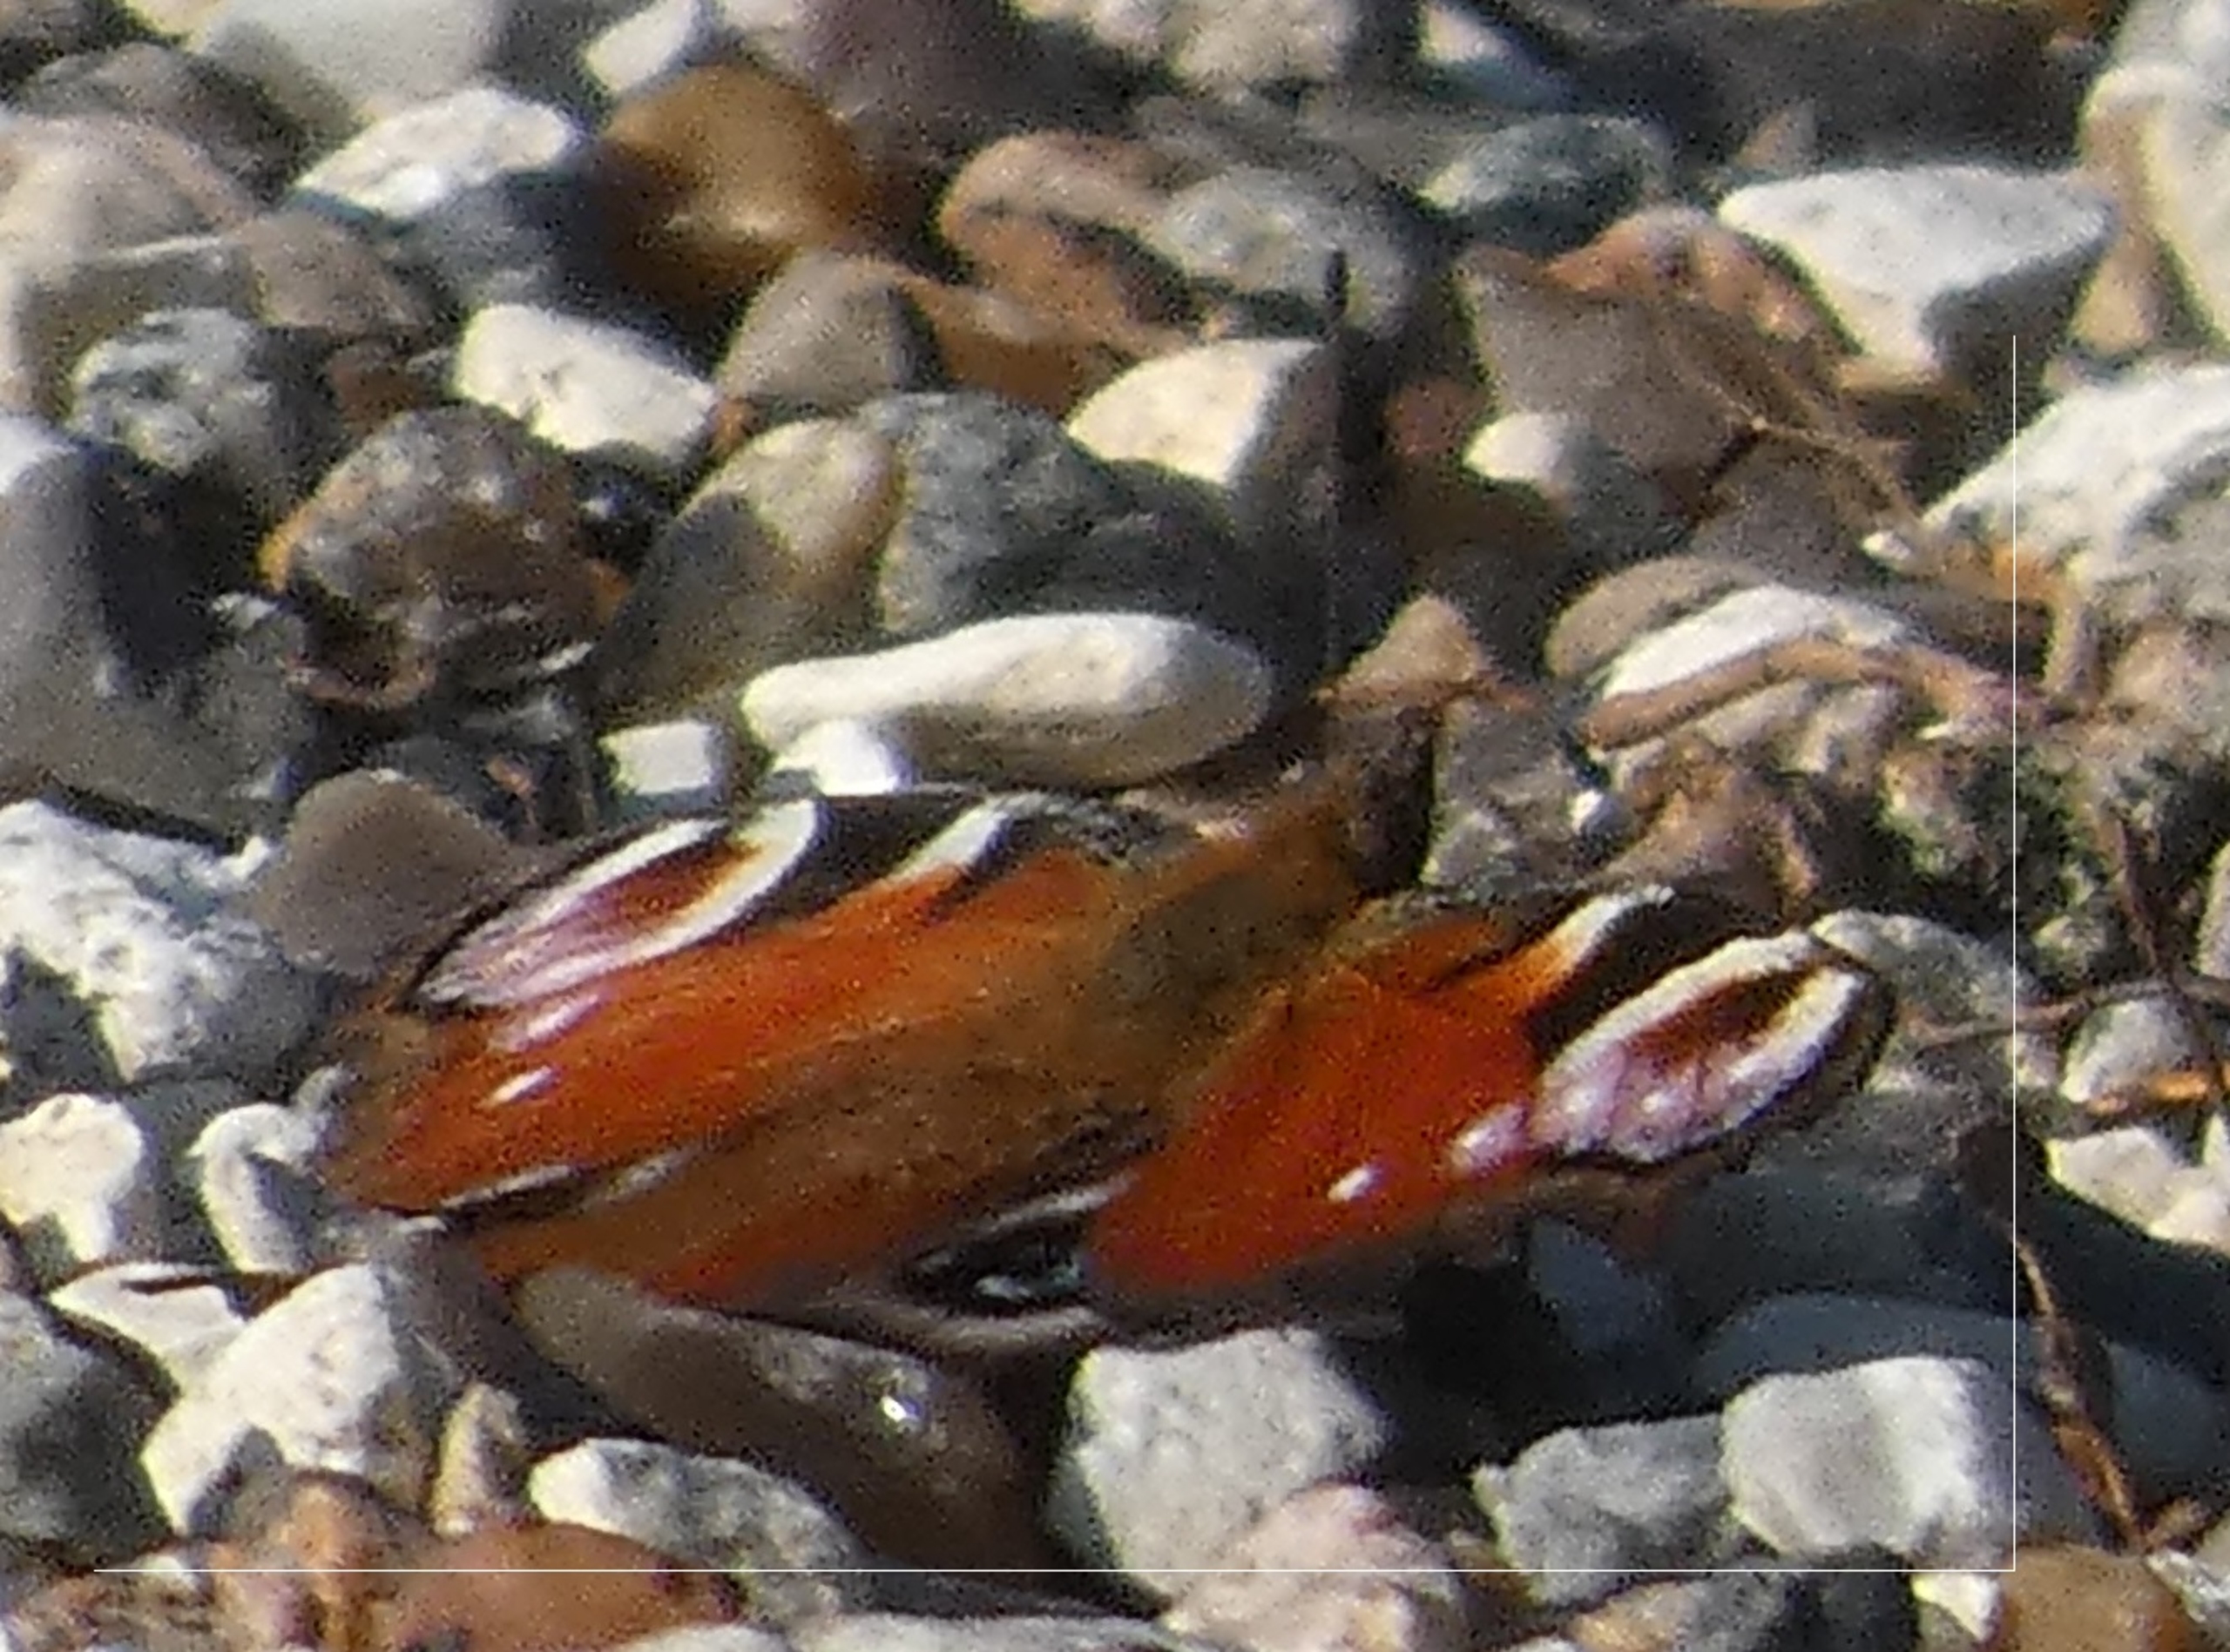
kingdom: Animalia
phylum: Arthropoda
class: Insecta
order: Lepidoptera
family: Nymphalidae
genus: Aglais
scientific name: Aglais io
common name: Dagpåfugleøje
